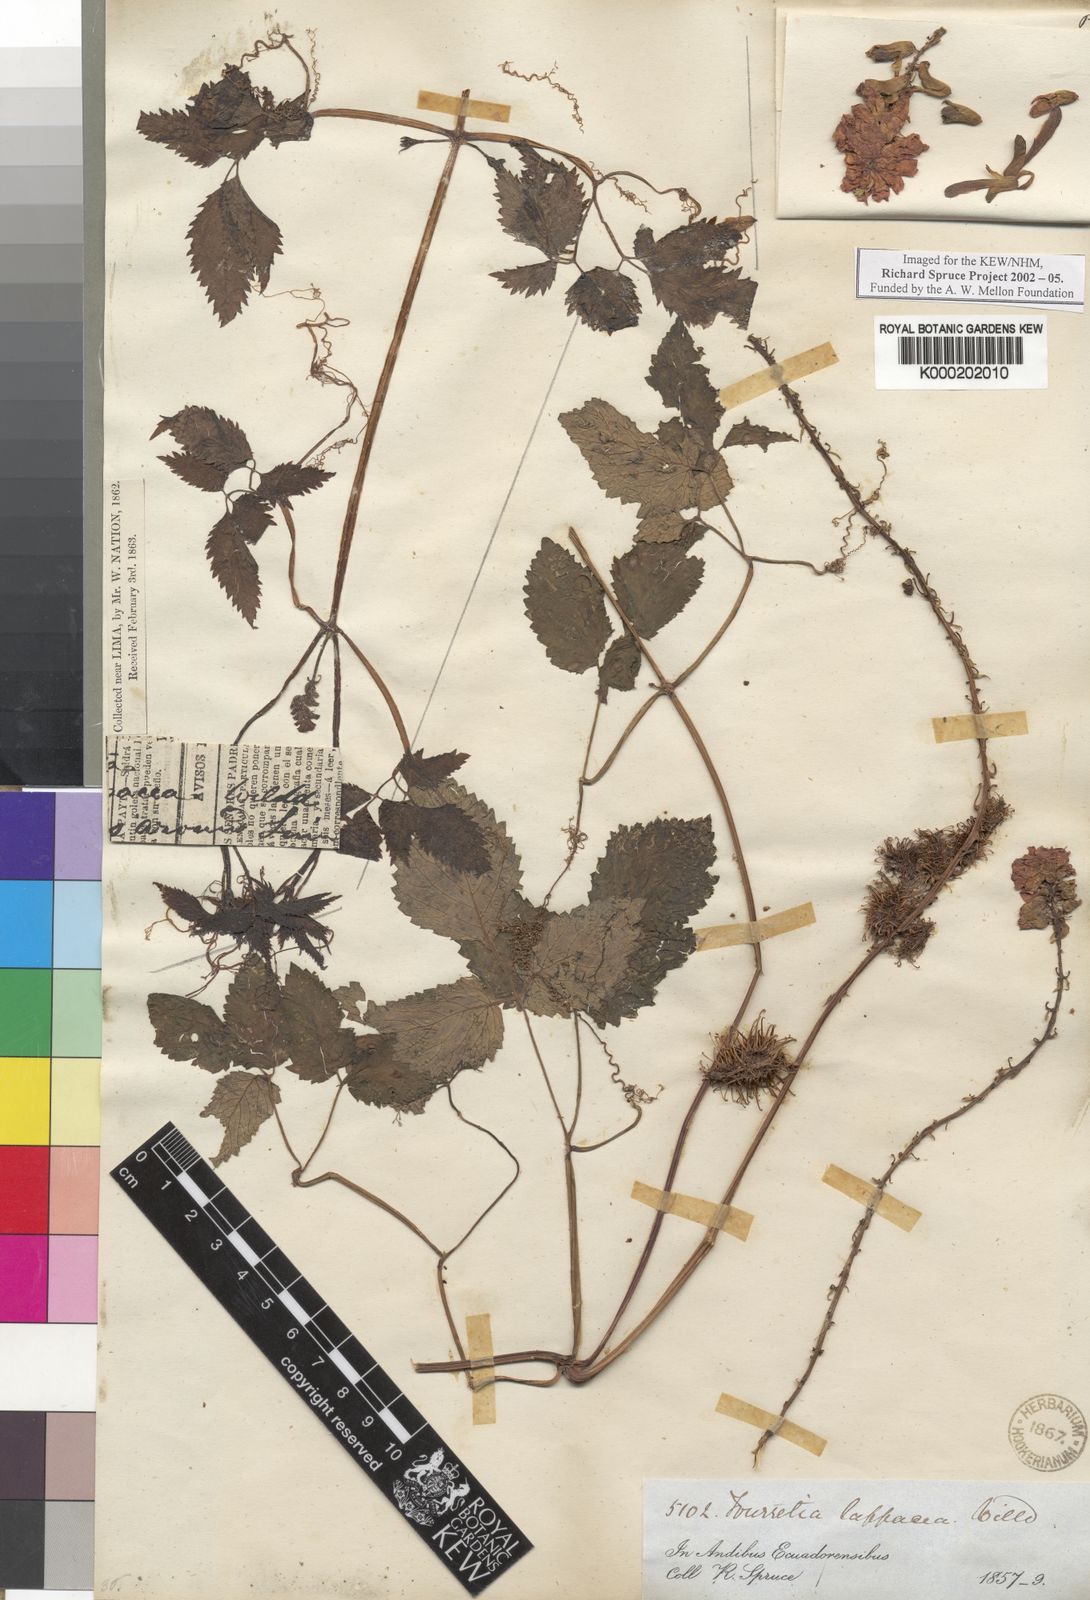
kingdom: Plantae
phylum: Tracheophyta
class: Magnoliopsida
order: Lamiales
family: Bignoniaceae
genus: Tourrettia
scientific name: Tourrettia lappacea
